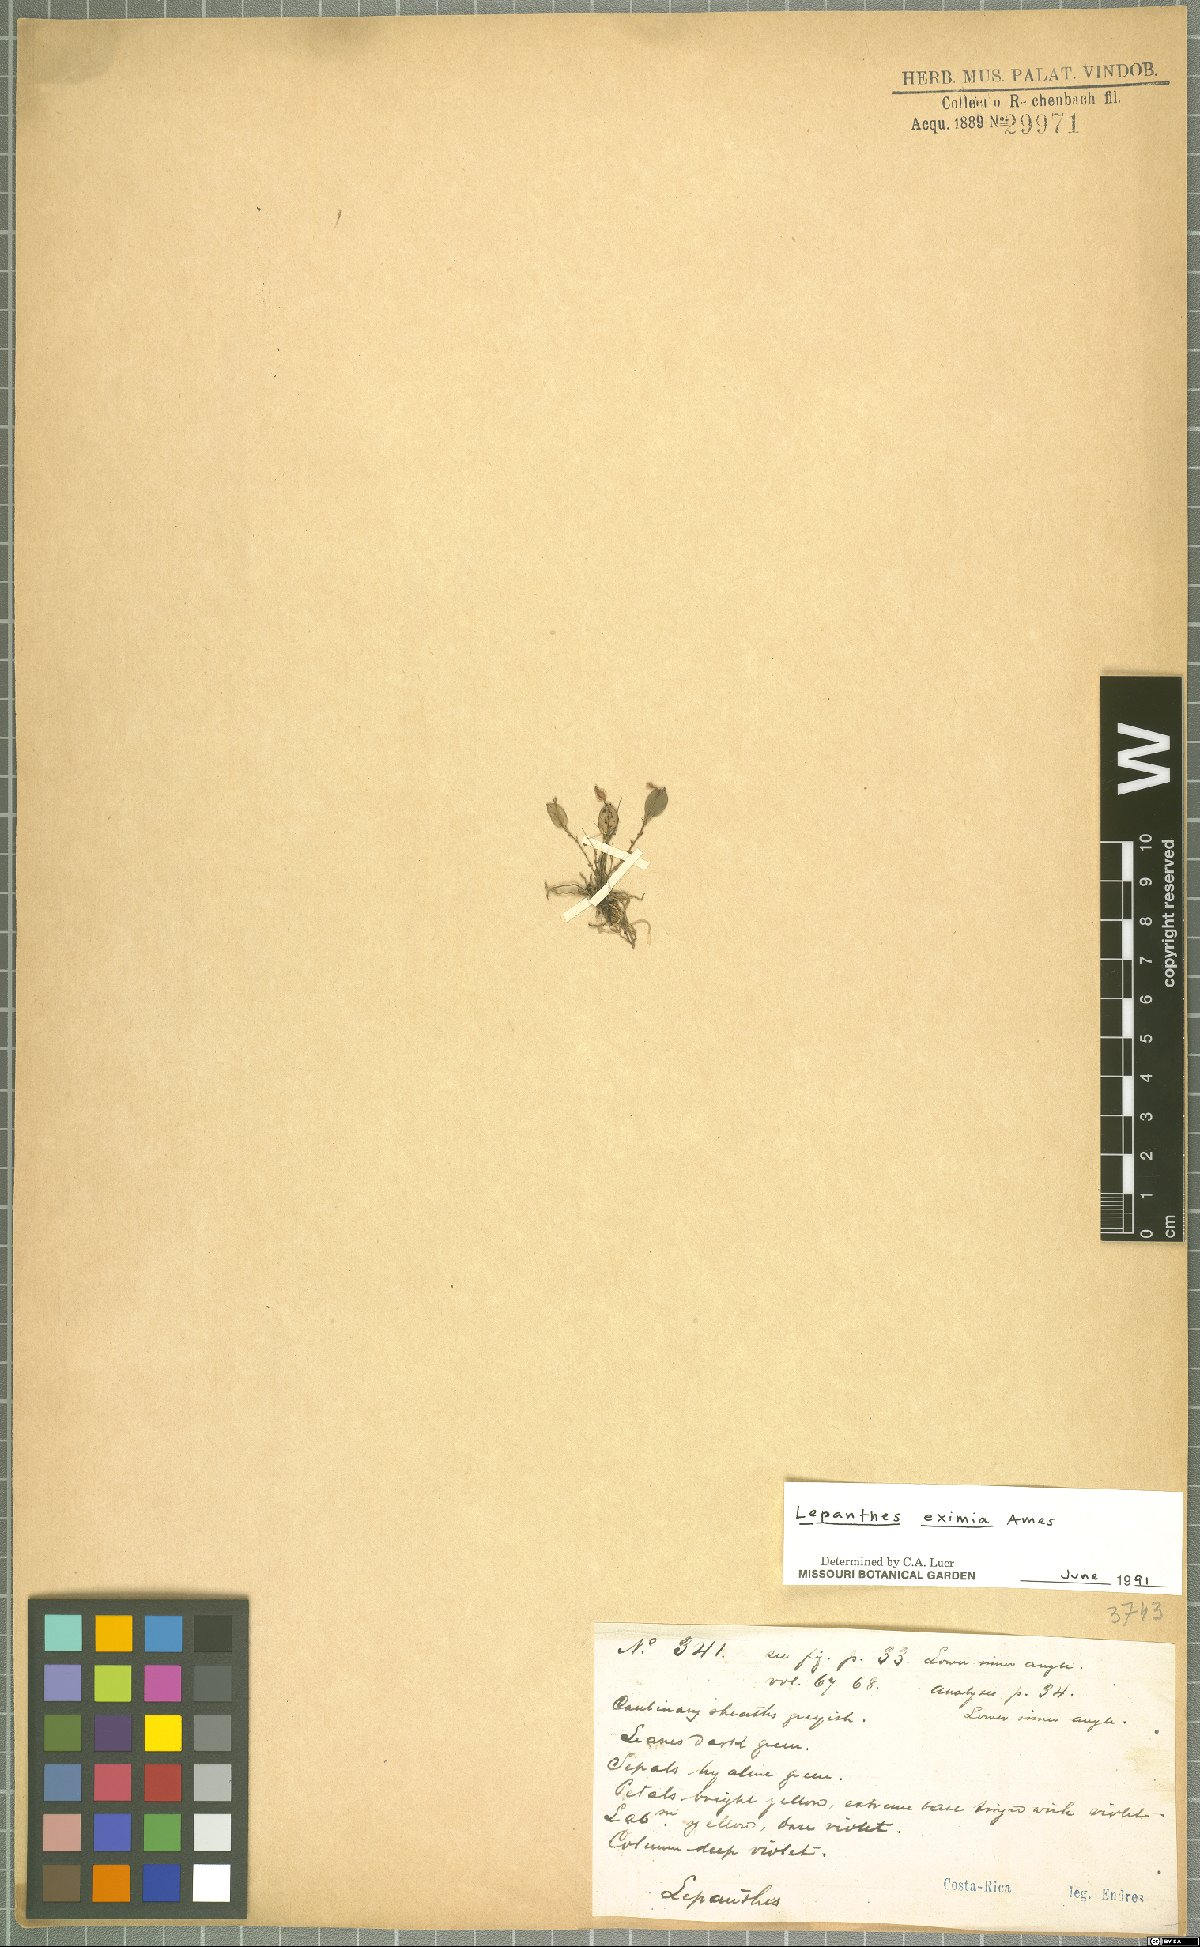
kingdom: Plantae
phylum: Tracheophyta
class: Liliopsida
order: Asparagales
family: Orchidaceae
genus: Lepanthes
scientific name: Lepanthes eximia
